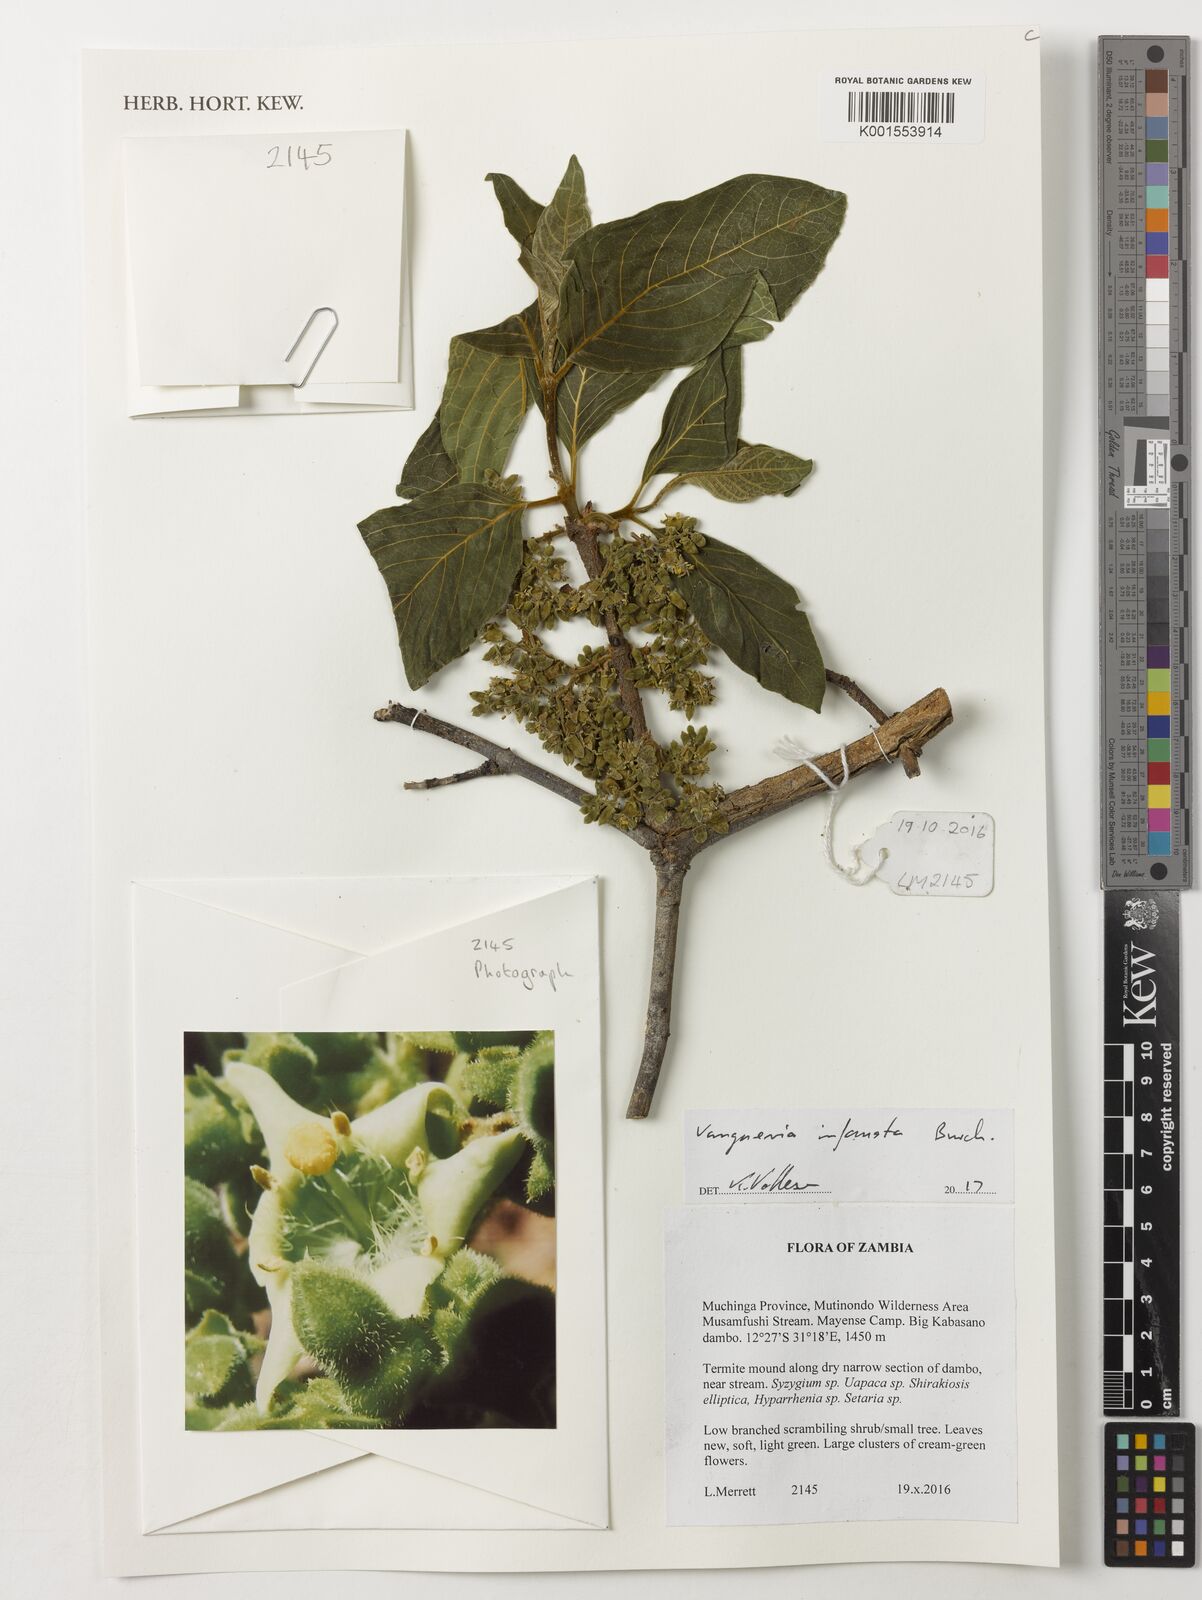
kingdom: Plantae
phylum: Tracheophyta
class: Magnoliopsida
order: Gentianales
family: Rubiaceae
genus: Vangueria
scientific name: Vangueria infausta
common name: Medlar
